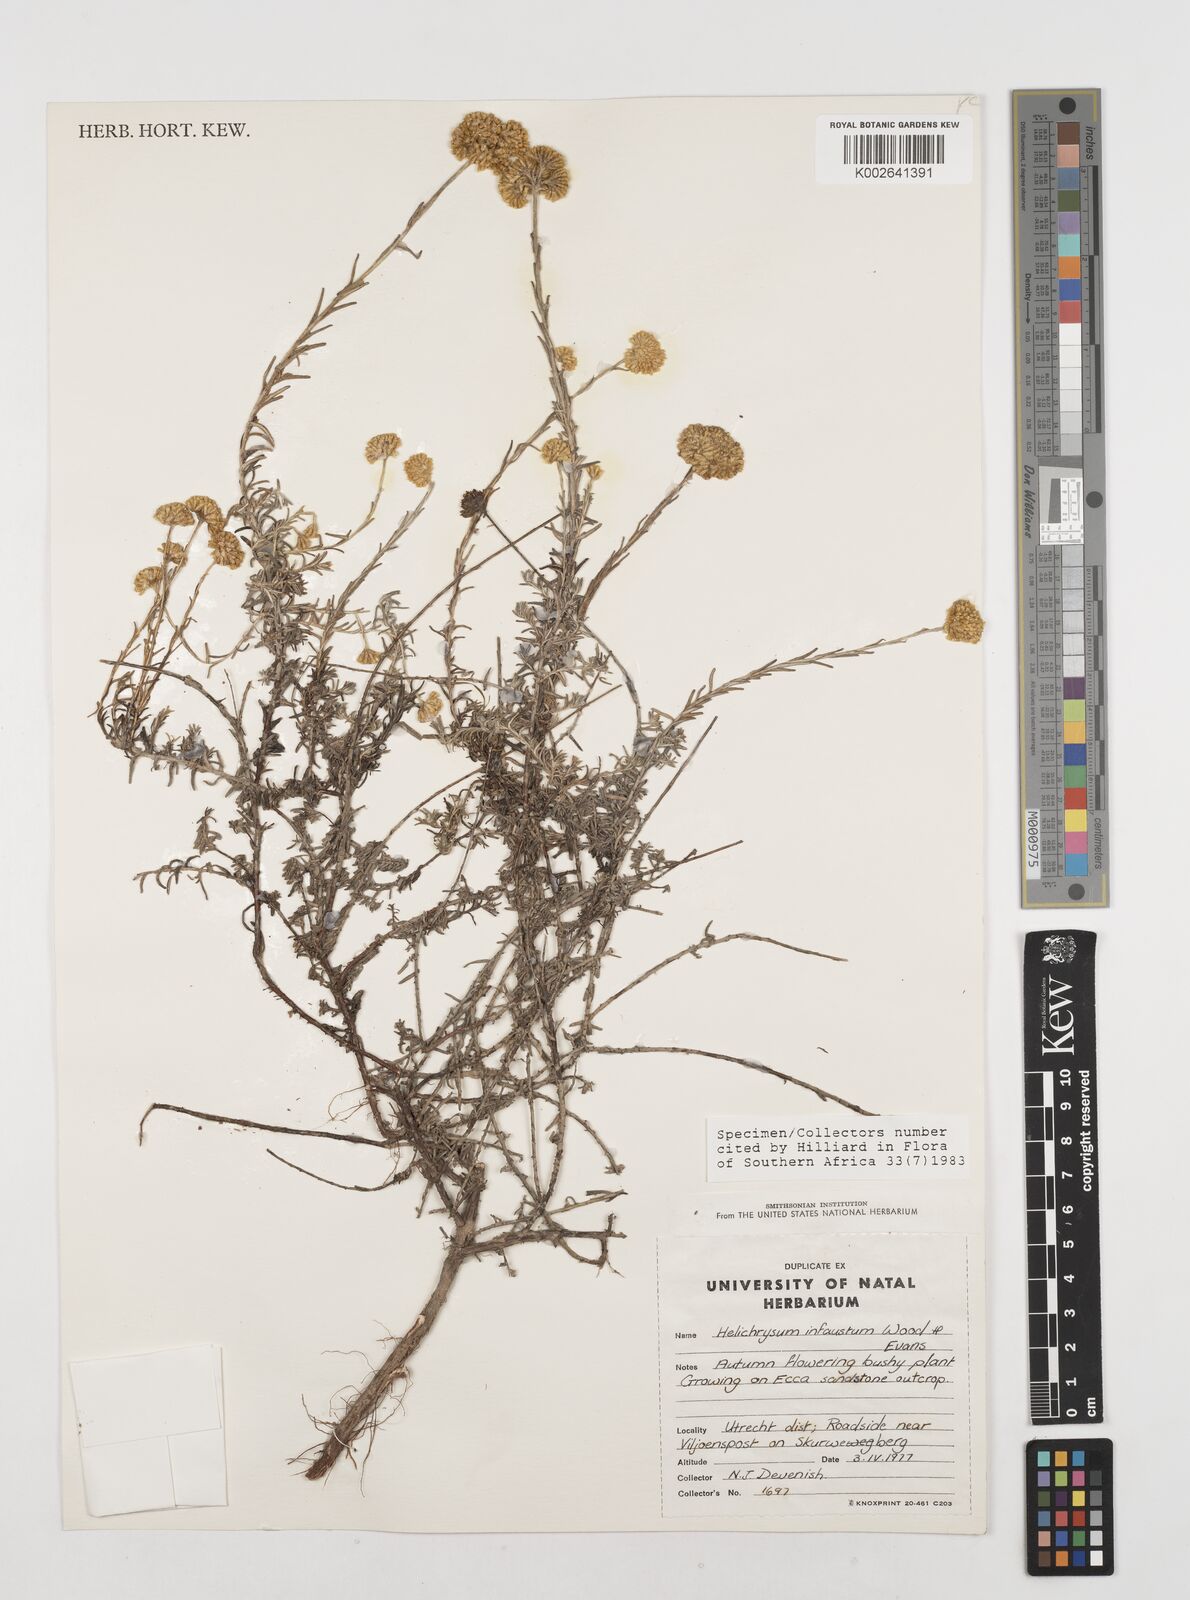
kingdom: Plantae
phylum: Tracheophyta
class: Magnoliopsida
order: Asterales
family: Asteraceae
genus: Calomeria
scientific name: Calomeria infausta
